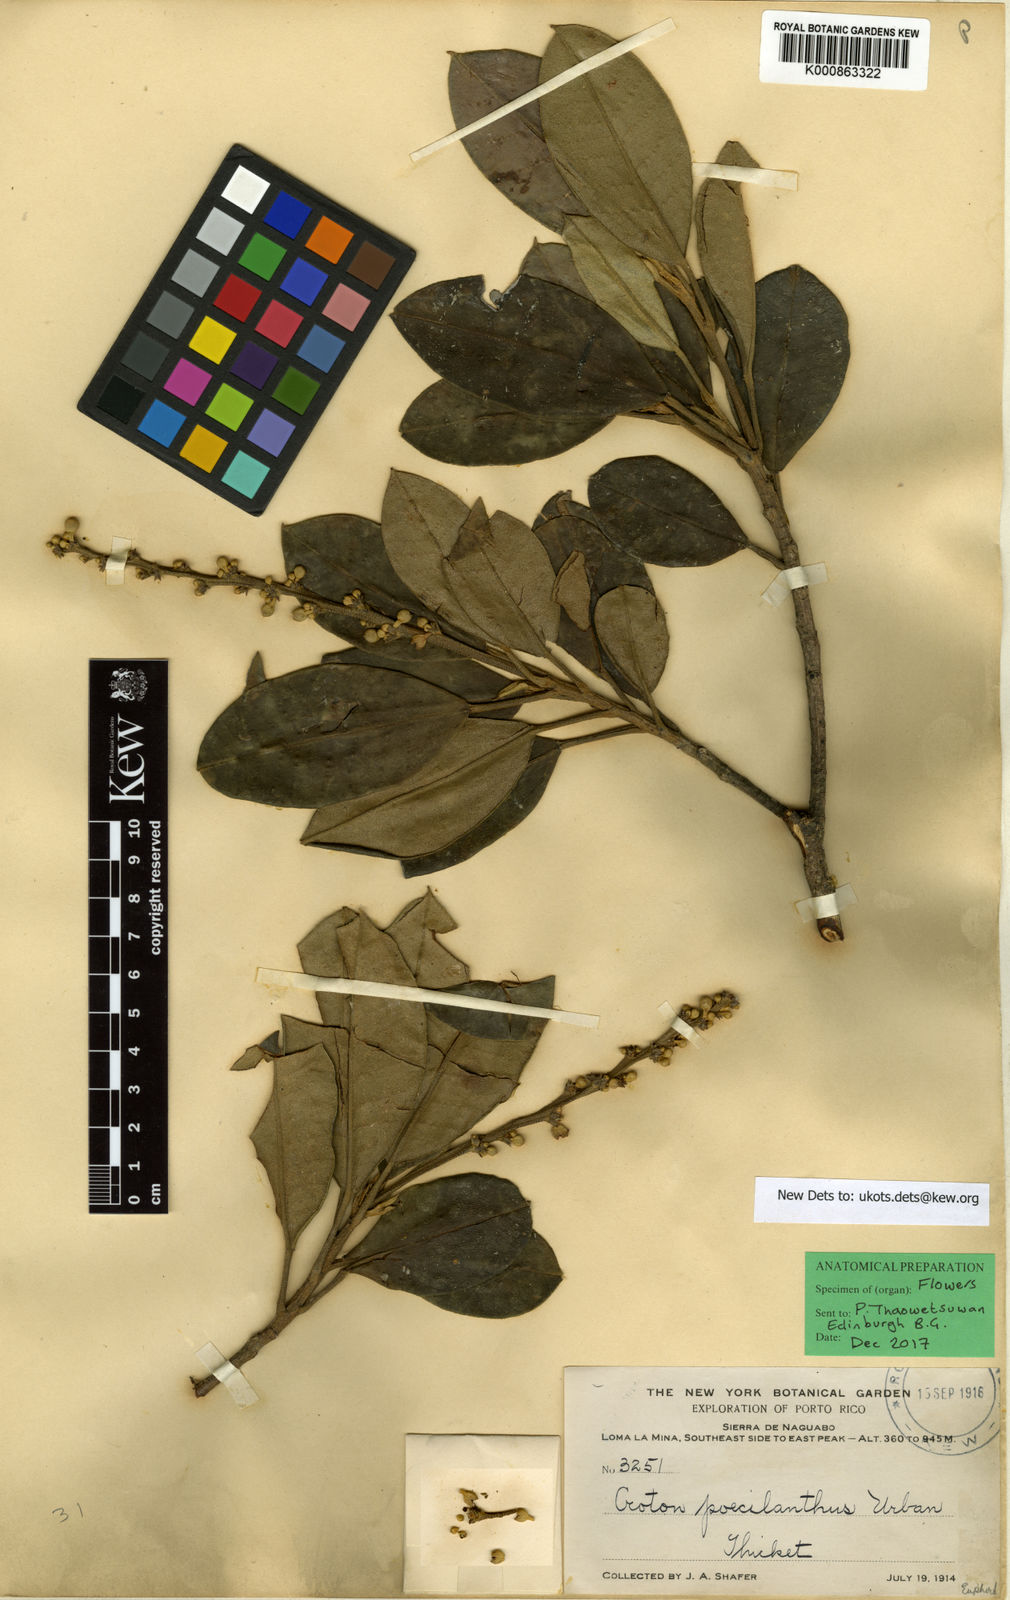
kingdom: Plantae
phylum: Tracheophyta
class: Magnoliopsida
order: Malpighiales
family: Euphorbiaceae
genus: Croton
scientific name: Croton poecilanthus
